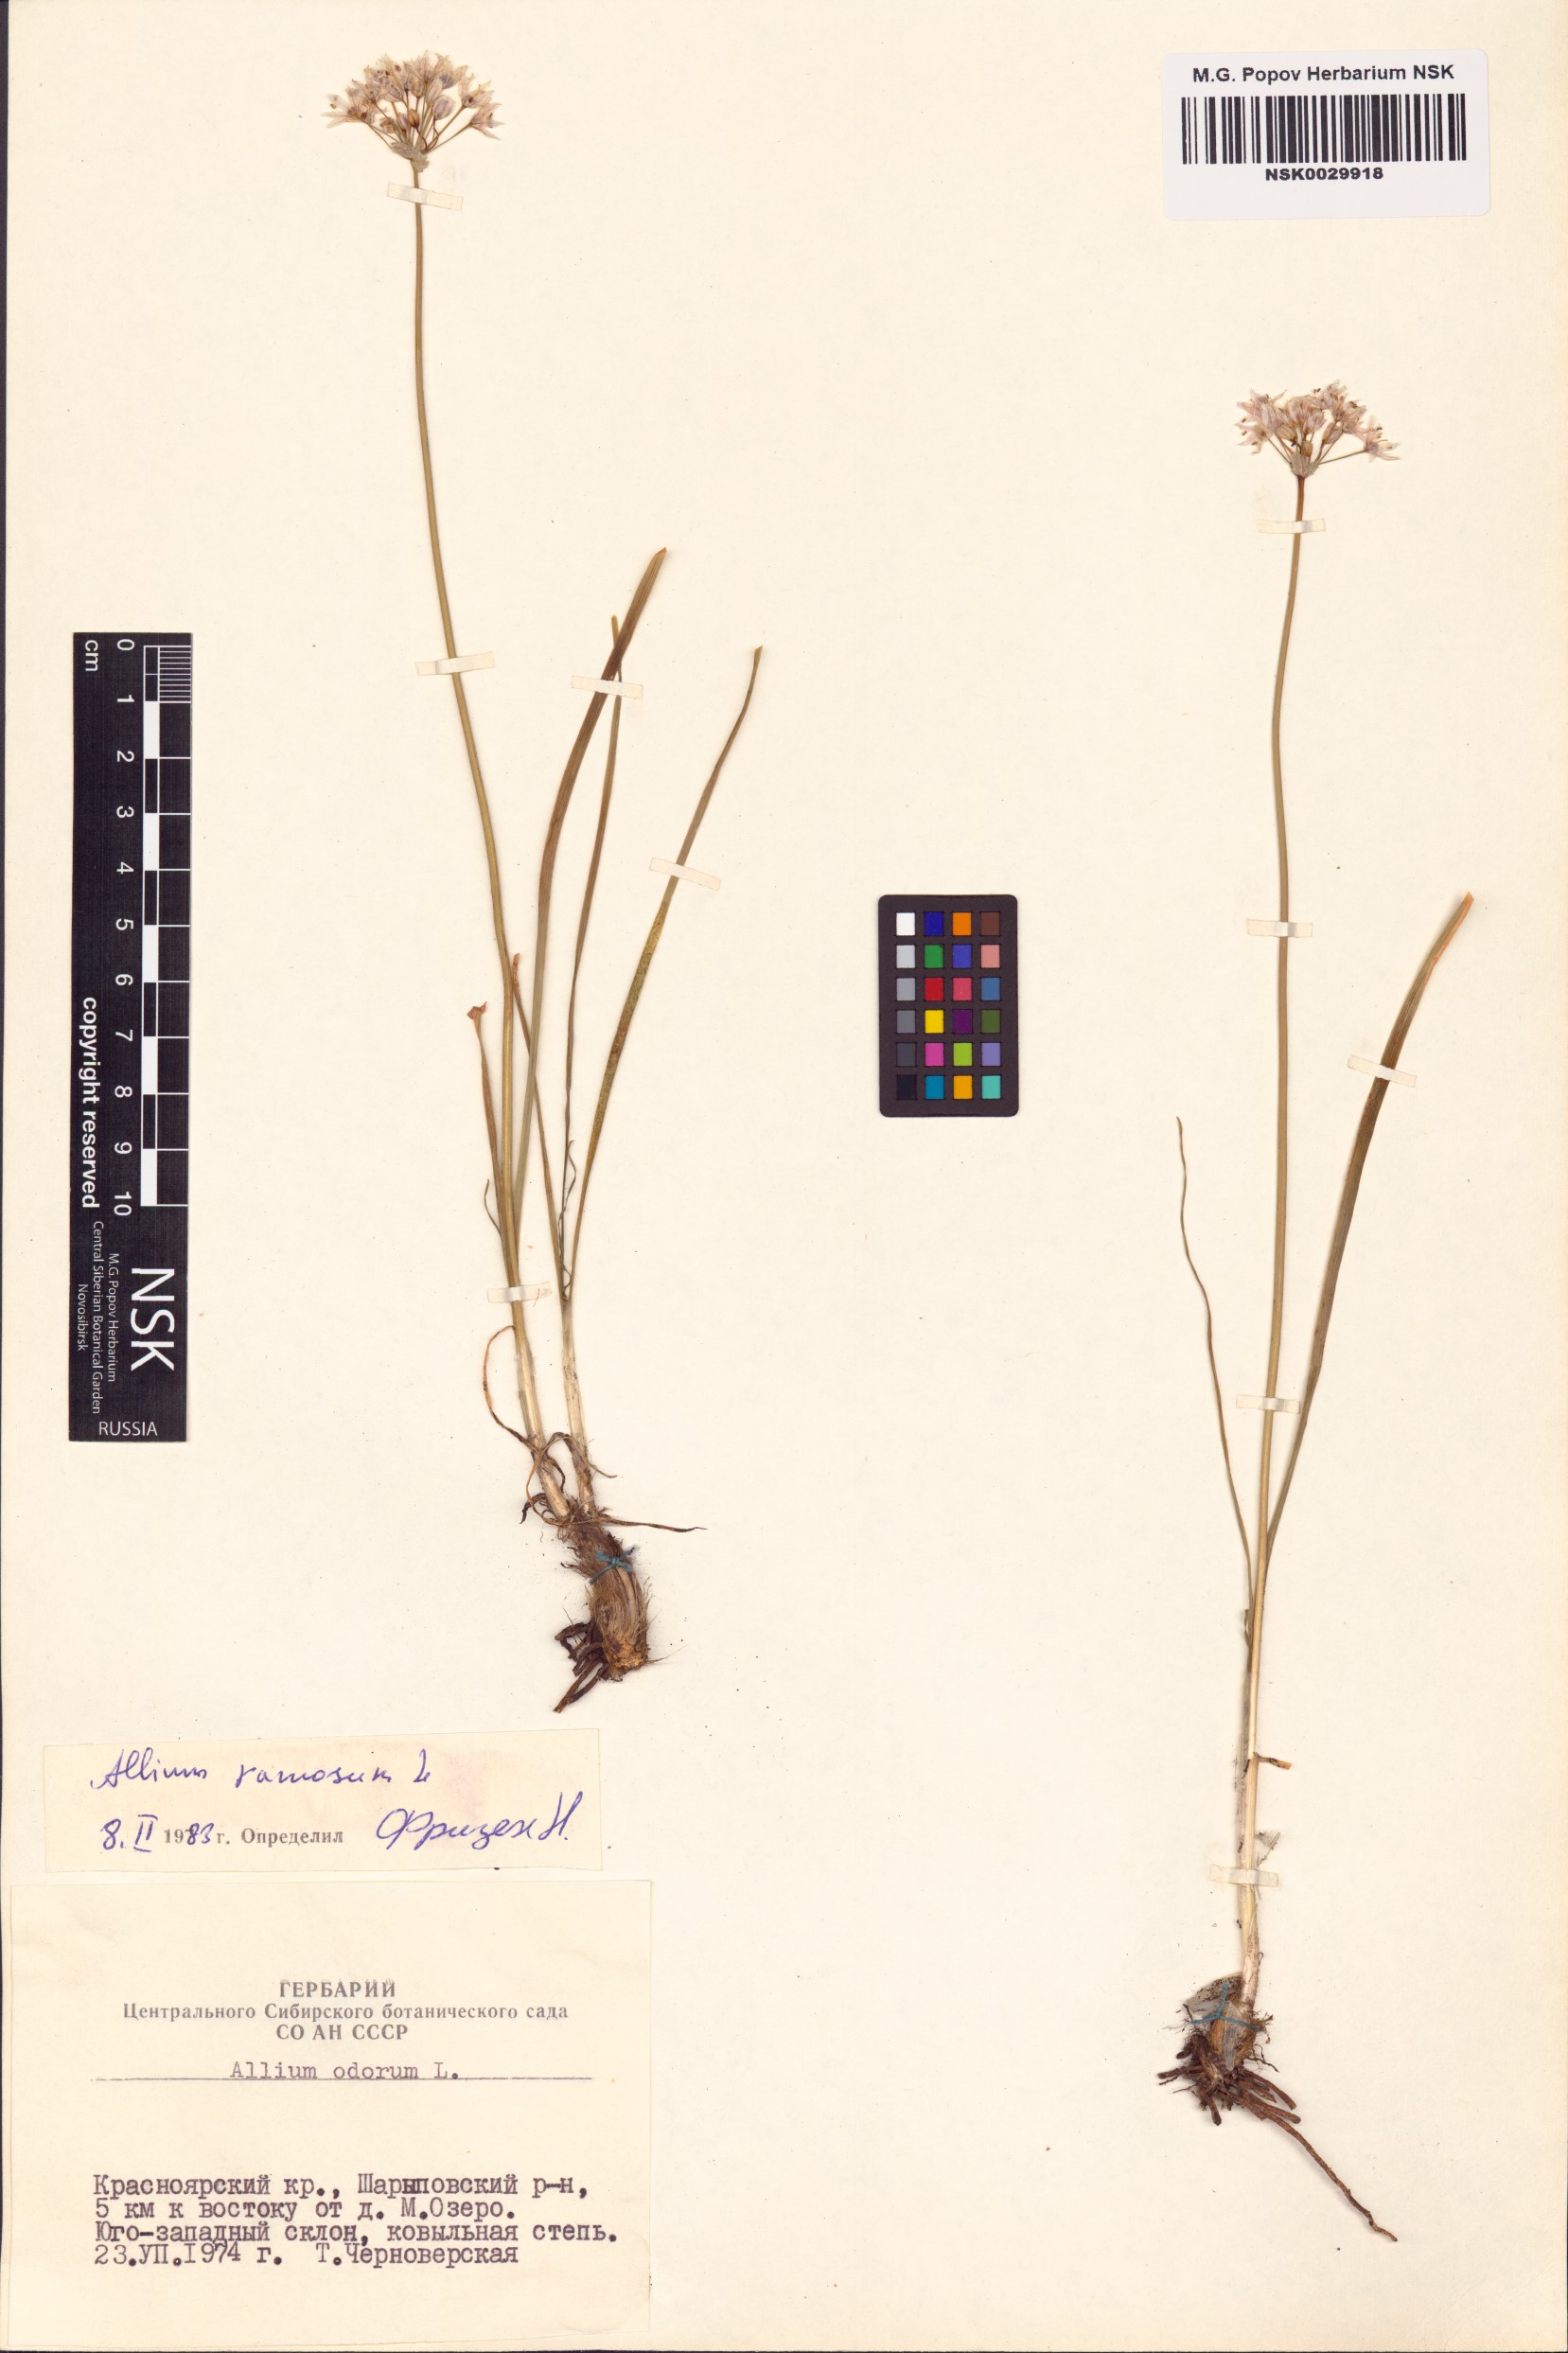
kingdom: Plantae
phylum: Tracheophyta
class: Liliopsida
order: Asparagales
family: Amaryllidaceae
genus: Allium
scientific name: Allium ramosum
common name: Fragrant garlic
